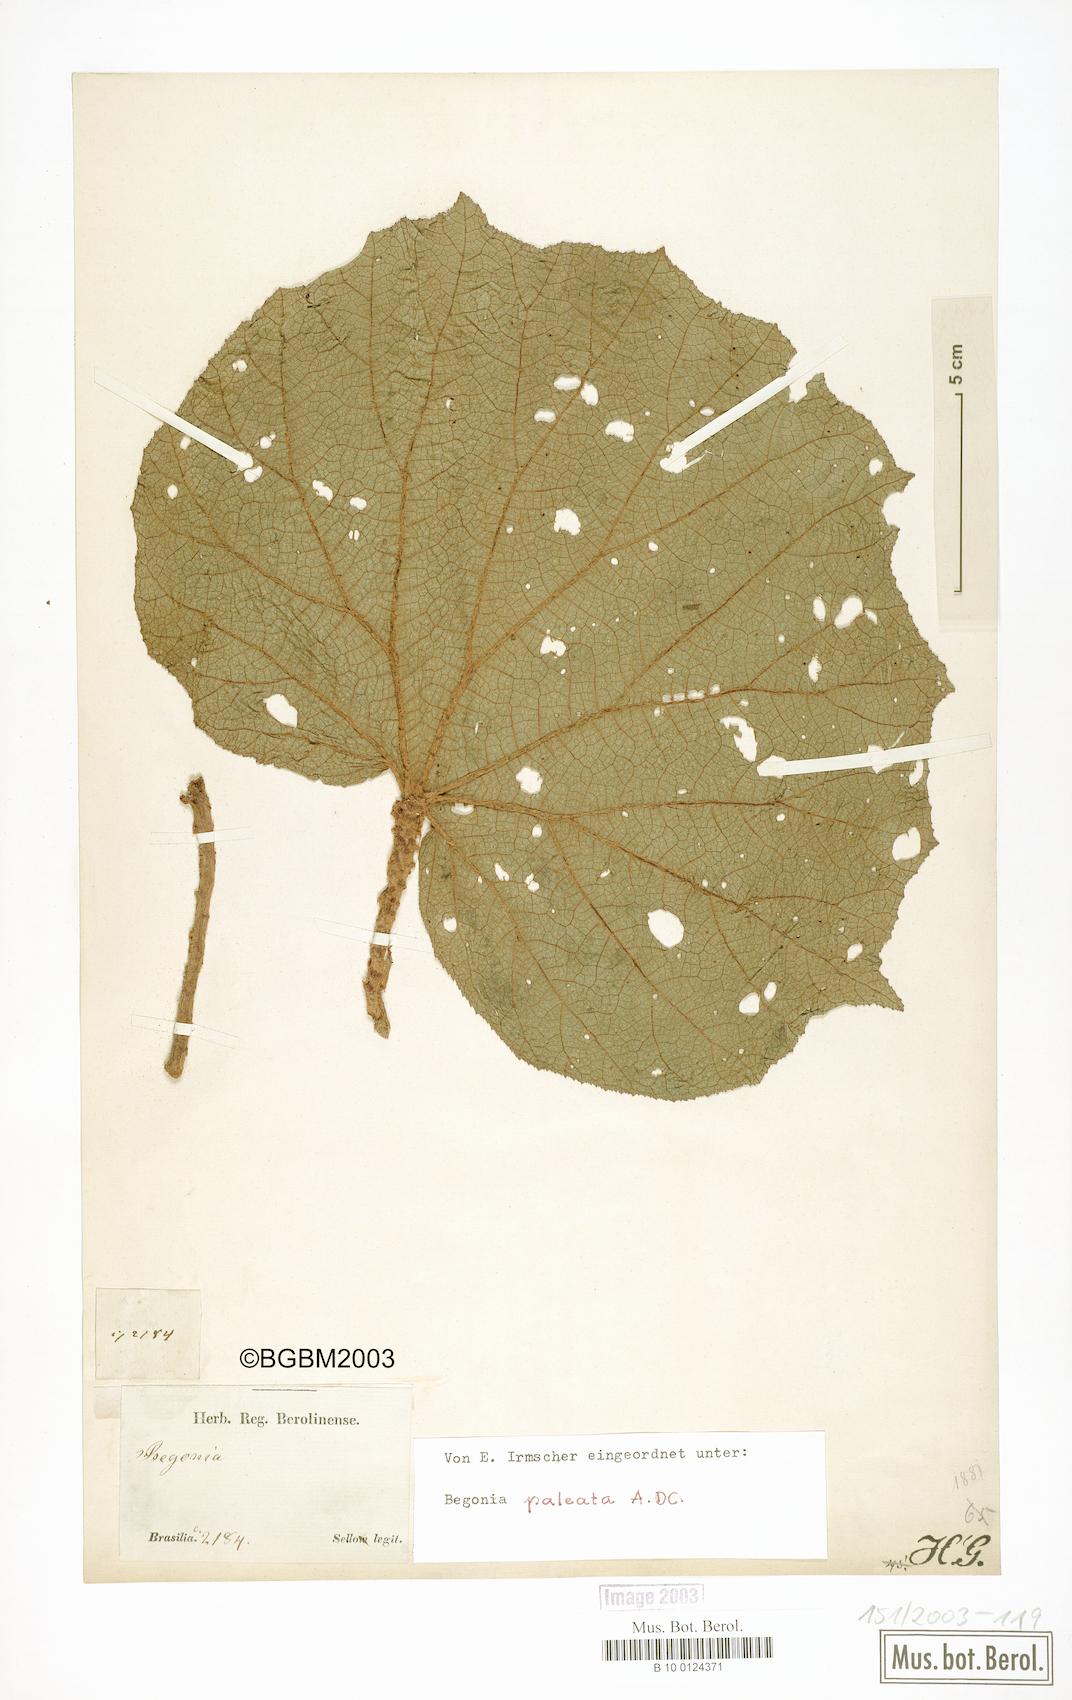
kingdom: Plantae
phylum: Tracheophyta
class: Magnoliopsida
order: Cucurbitales
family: Begoniaceae
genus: Begonia
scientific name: Begonia paleata
